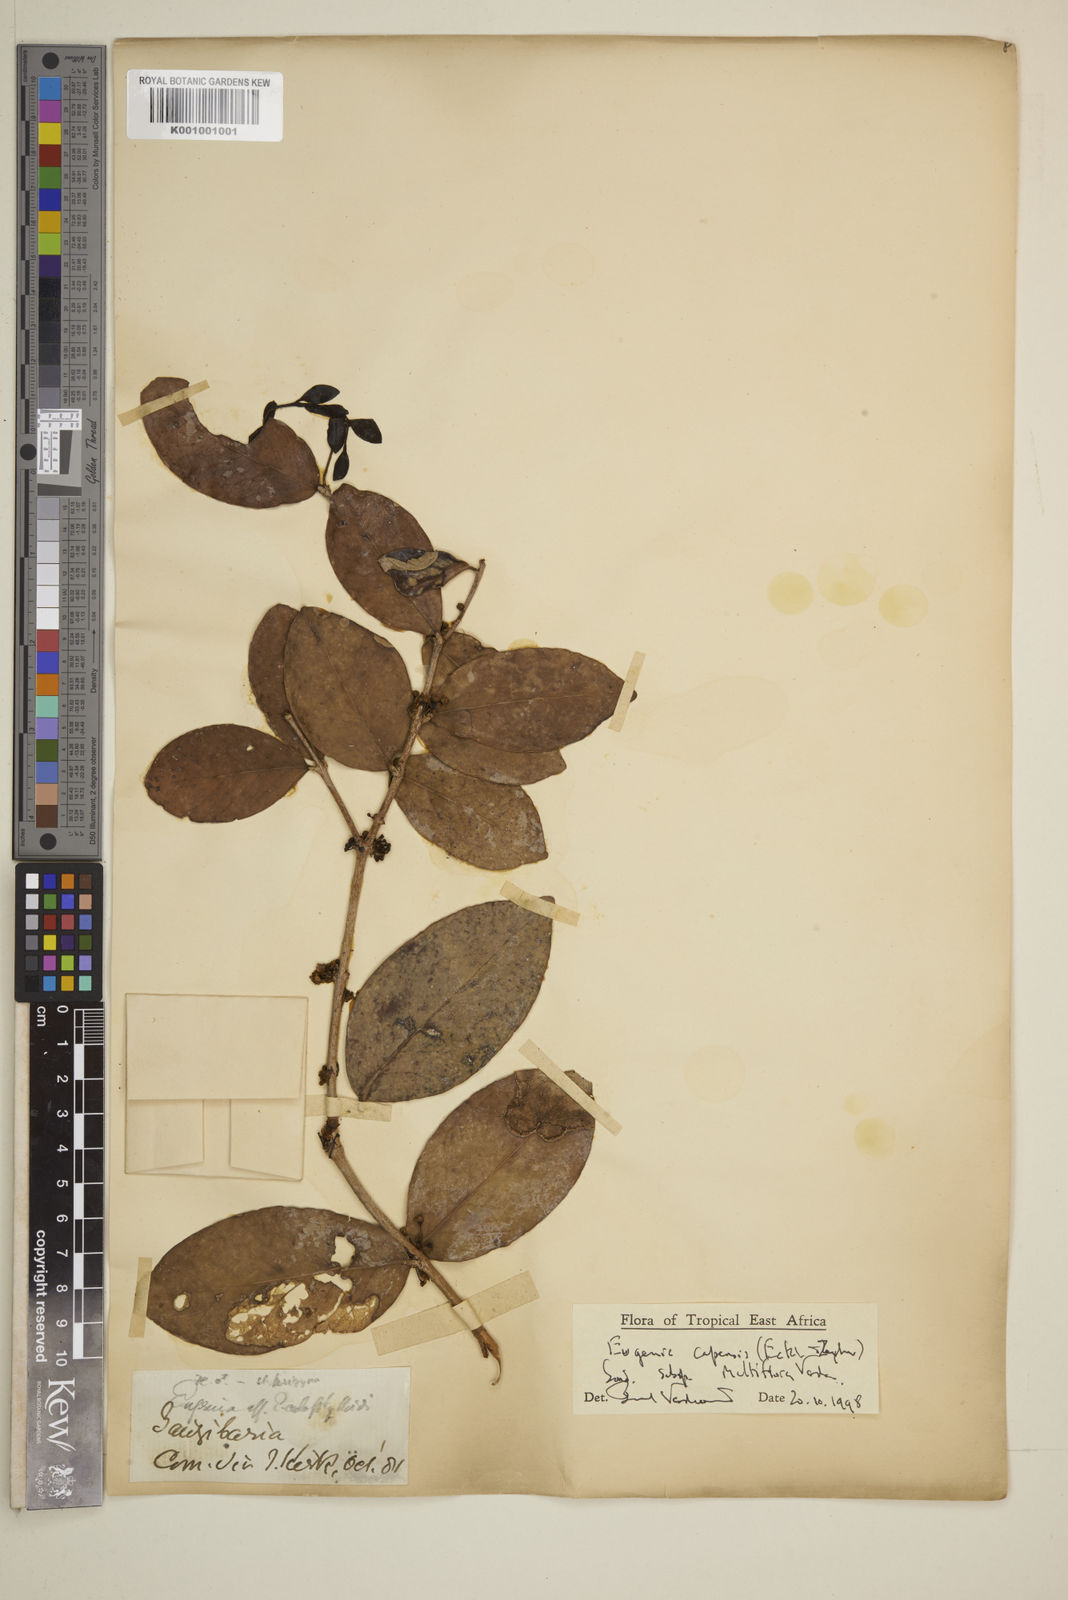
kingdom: Plantae
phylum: Tracheophyta
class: Magnoliopsida
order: Myrtales
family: Myrtaceae
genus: Eugenia
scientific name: Eugenia capensis
